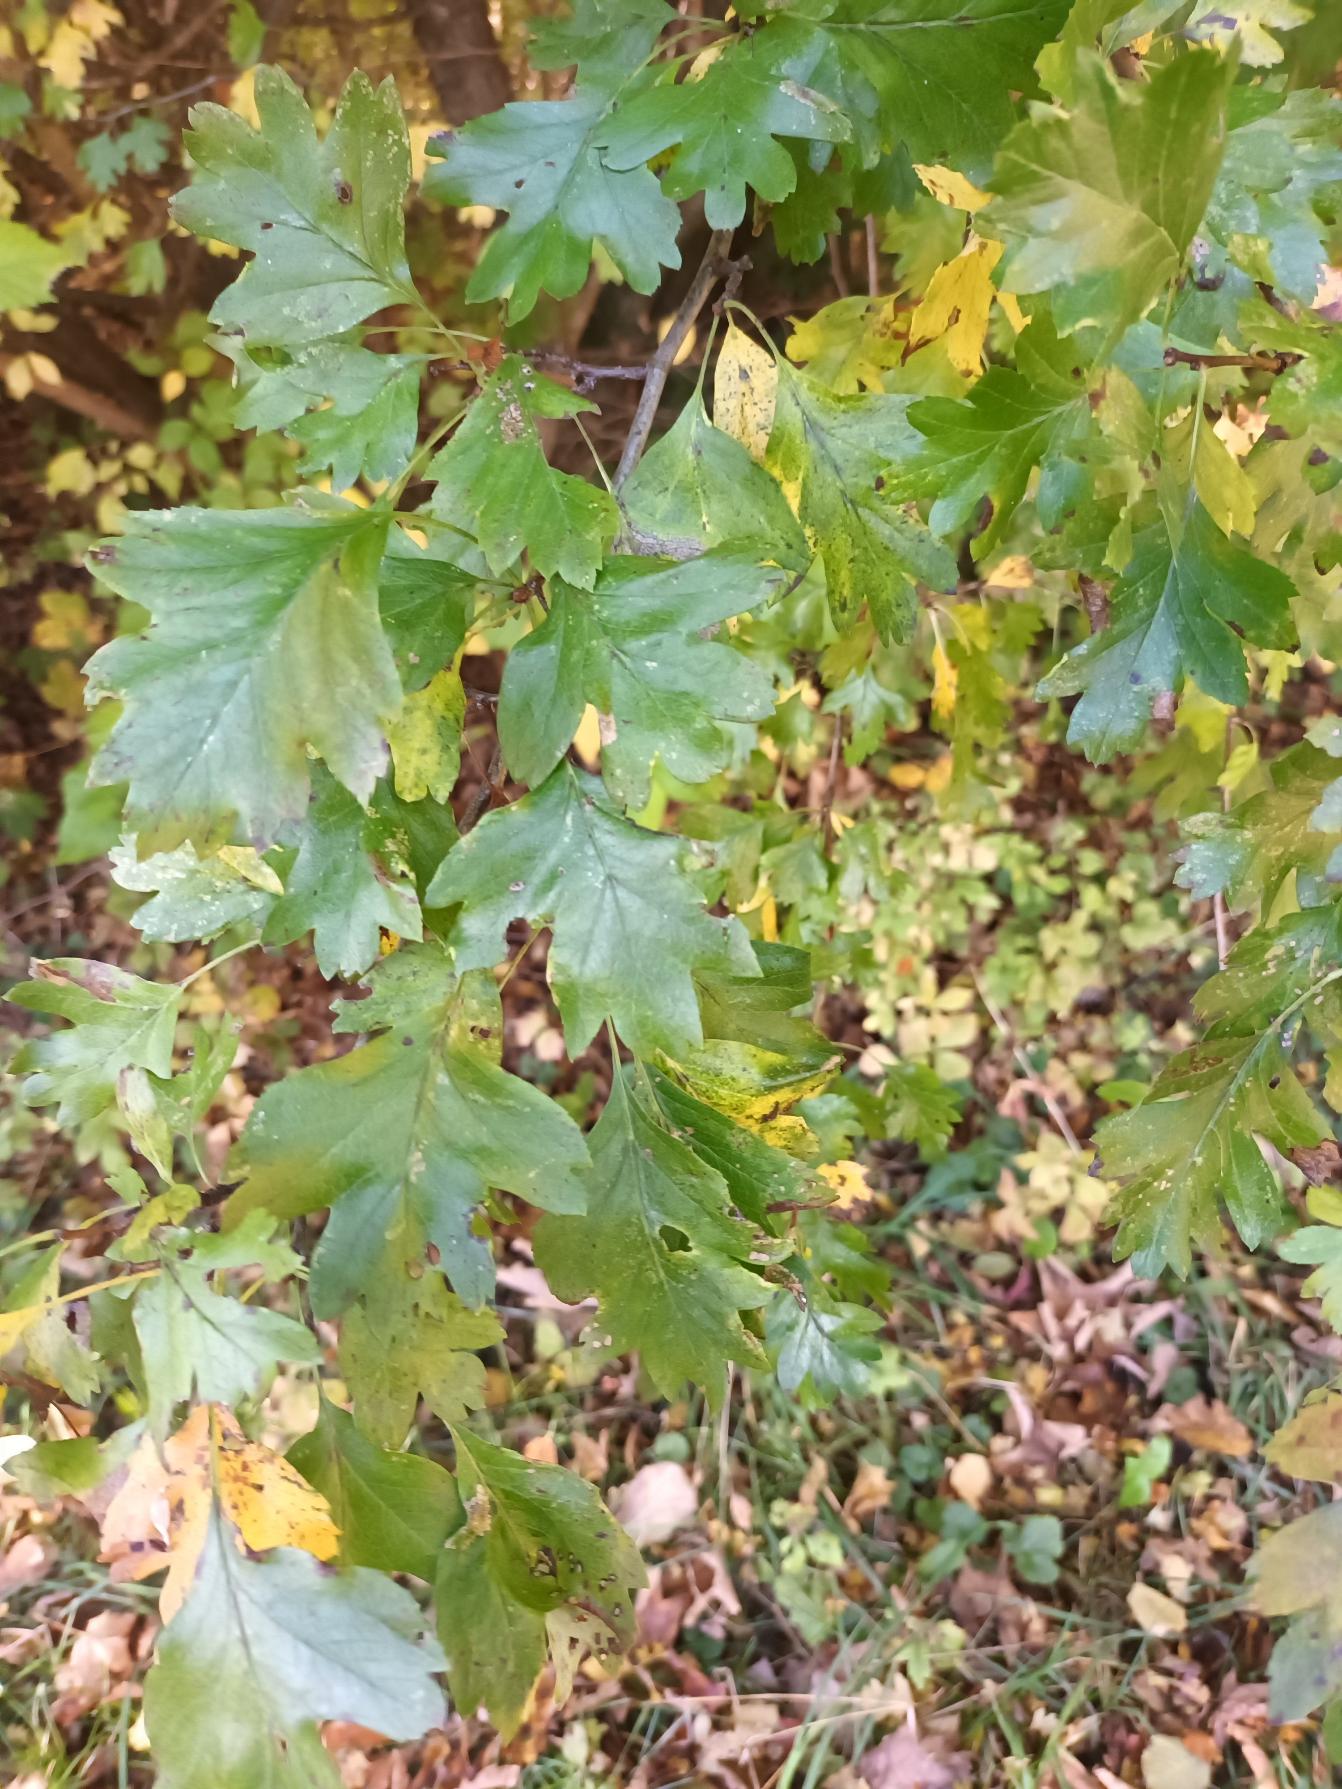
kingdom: Plantae
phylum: Tracheophyta
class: Magnoliopsida
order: Rosales
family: Rosaceae
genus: Crataegus
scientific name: Crataegus monogyna
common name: Engriflet hvidtjørn
